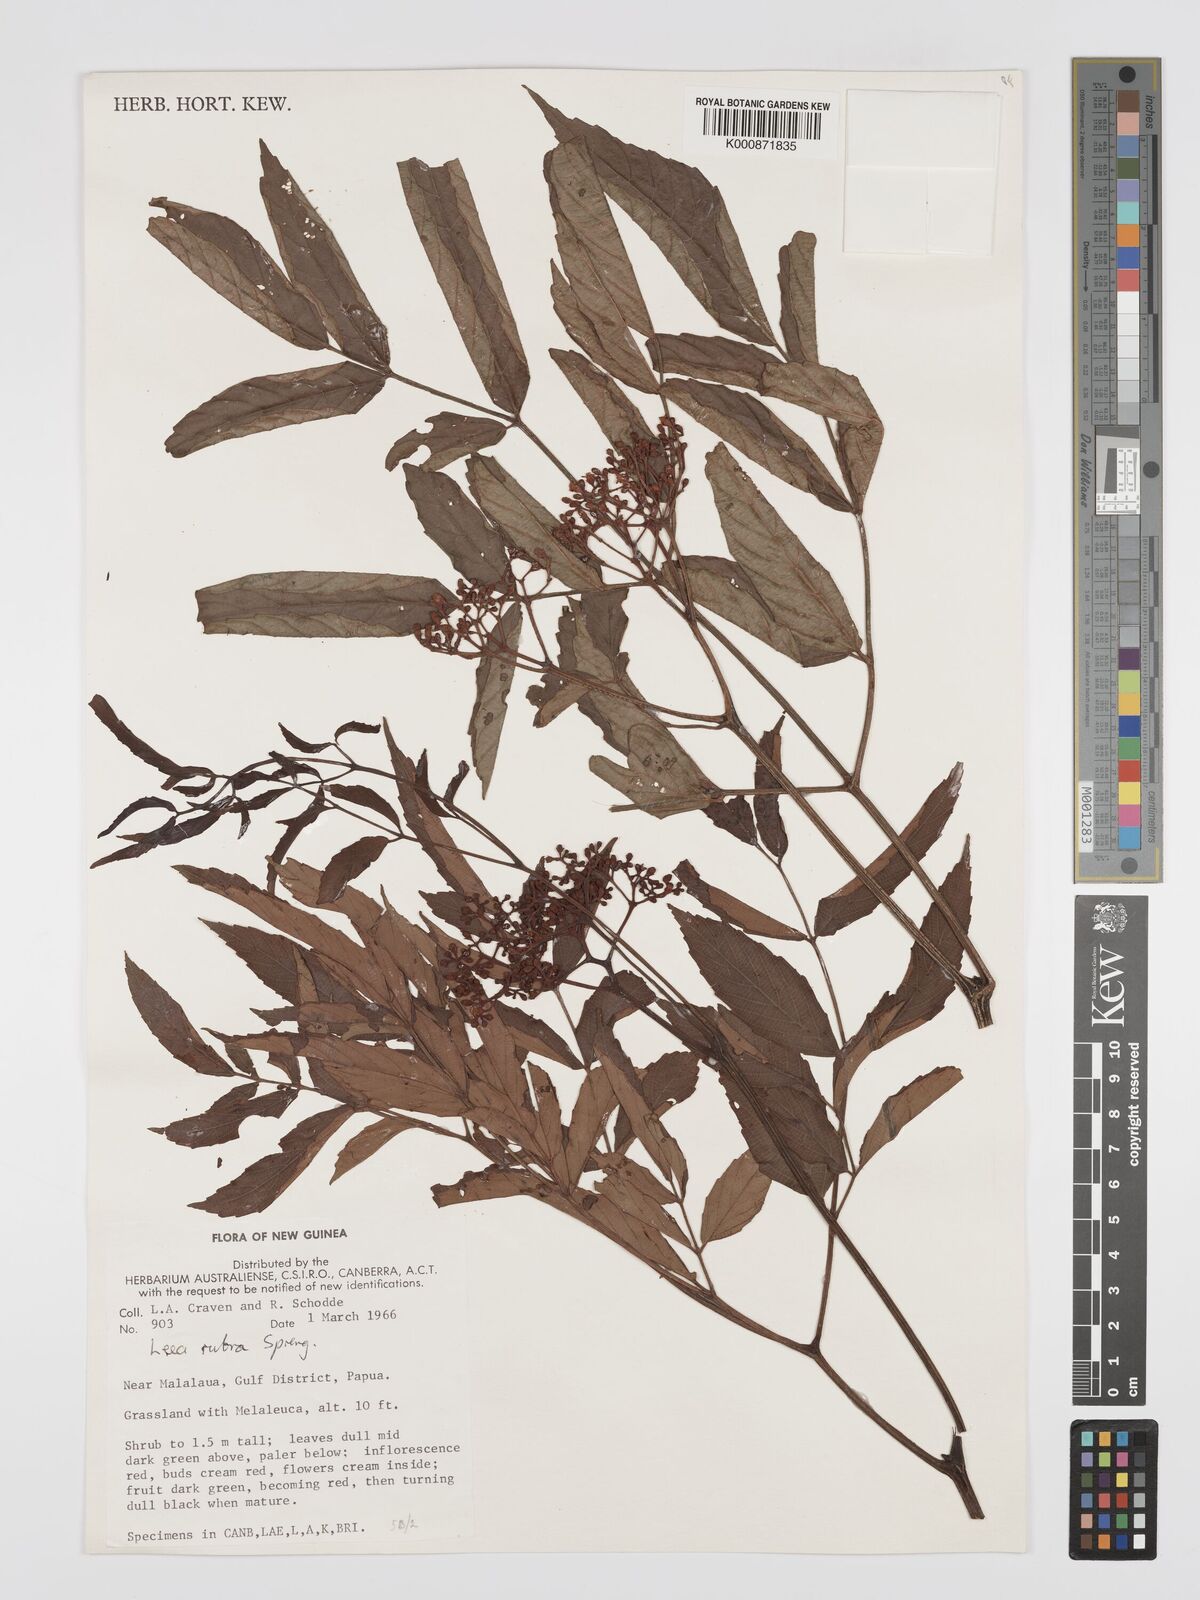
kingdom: Plantae
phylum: Tracheophyta
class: Magnoliopsida
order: Vitales
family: Vitaceae
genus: Leea
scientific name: Leea
